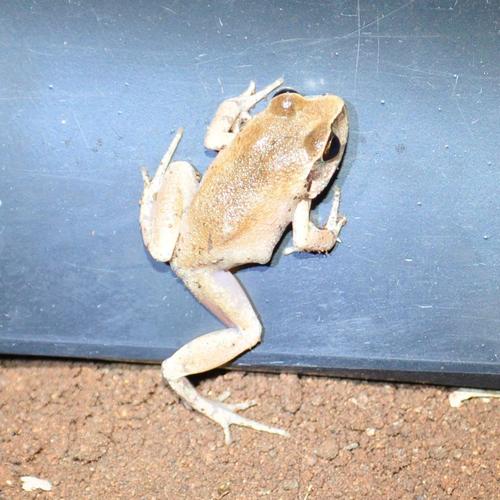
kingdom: Animalia
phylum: Chordata
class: Amphibia
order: Anura
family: Arthroleptidae
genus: Arthroleptis
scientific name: Arthroleptis stenodactylus
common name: Dune squeaker
